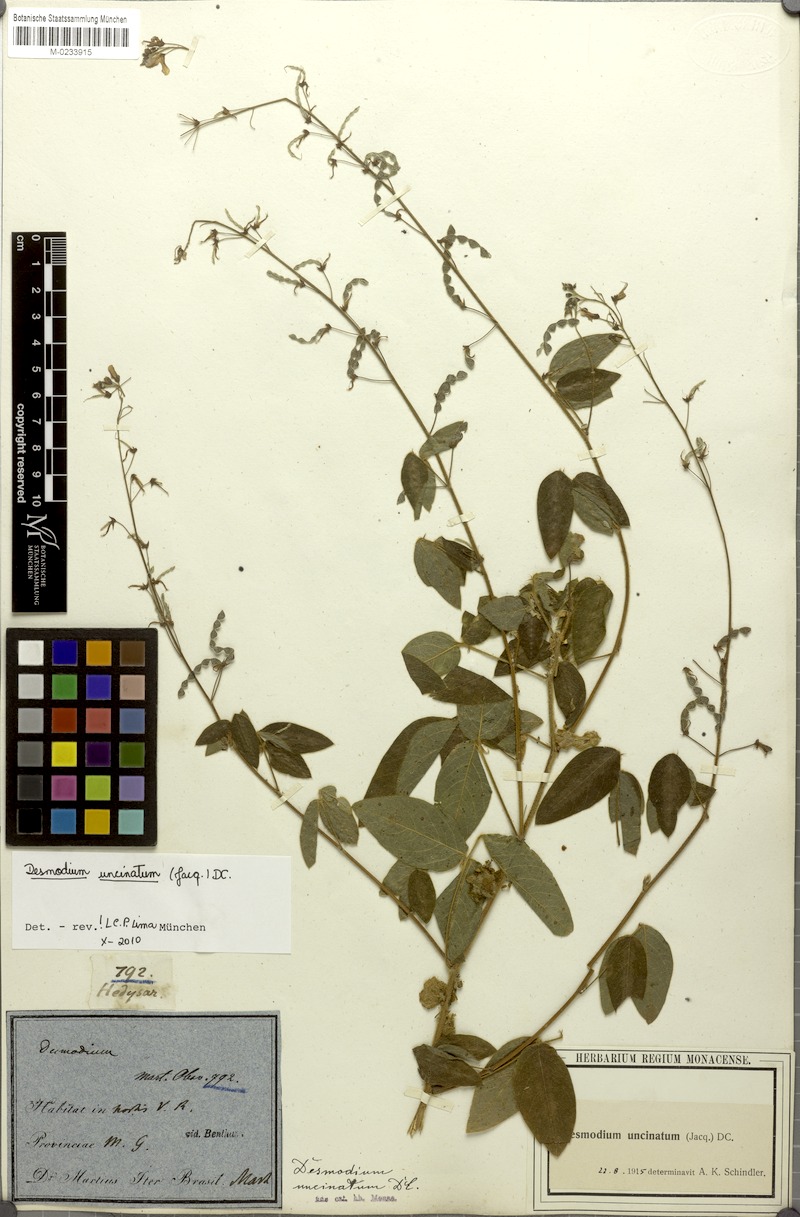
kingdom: Plantae
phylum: Tracheophyta
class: Magnoliopsida
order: Fabales
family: Fabaceae
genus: Desmodium
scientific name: Desmodium uncinatum
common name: Silverleaf desmodium
